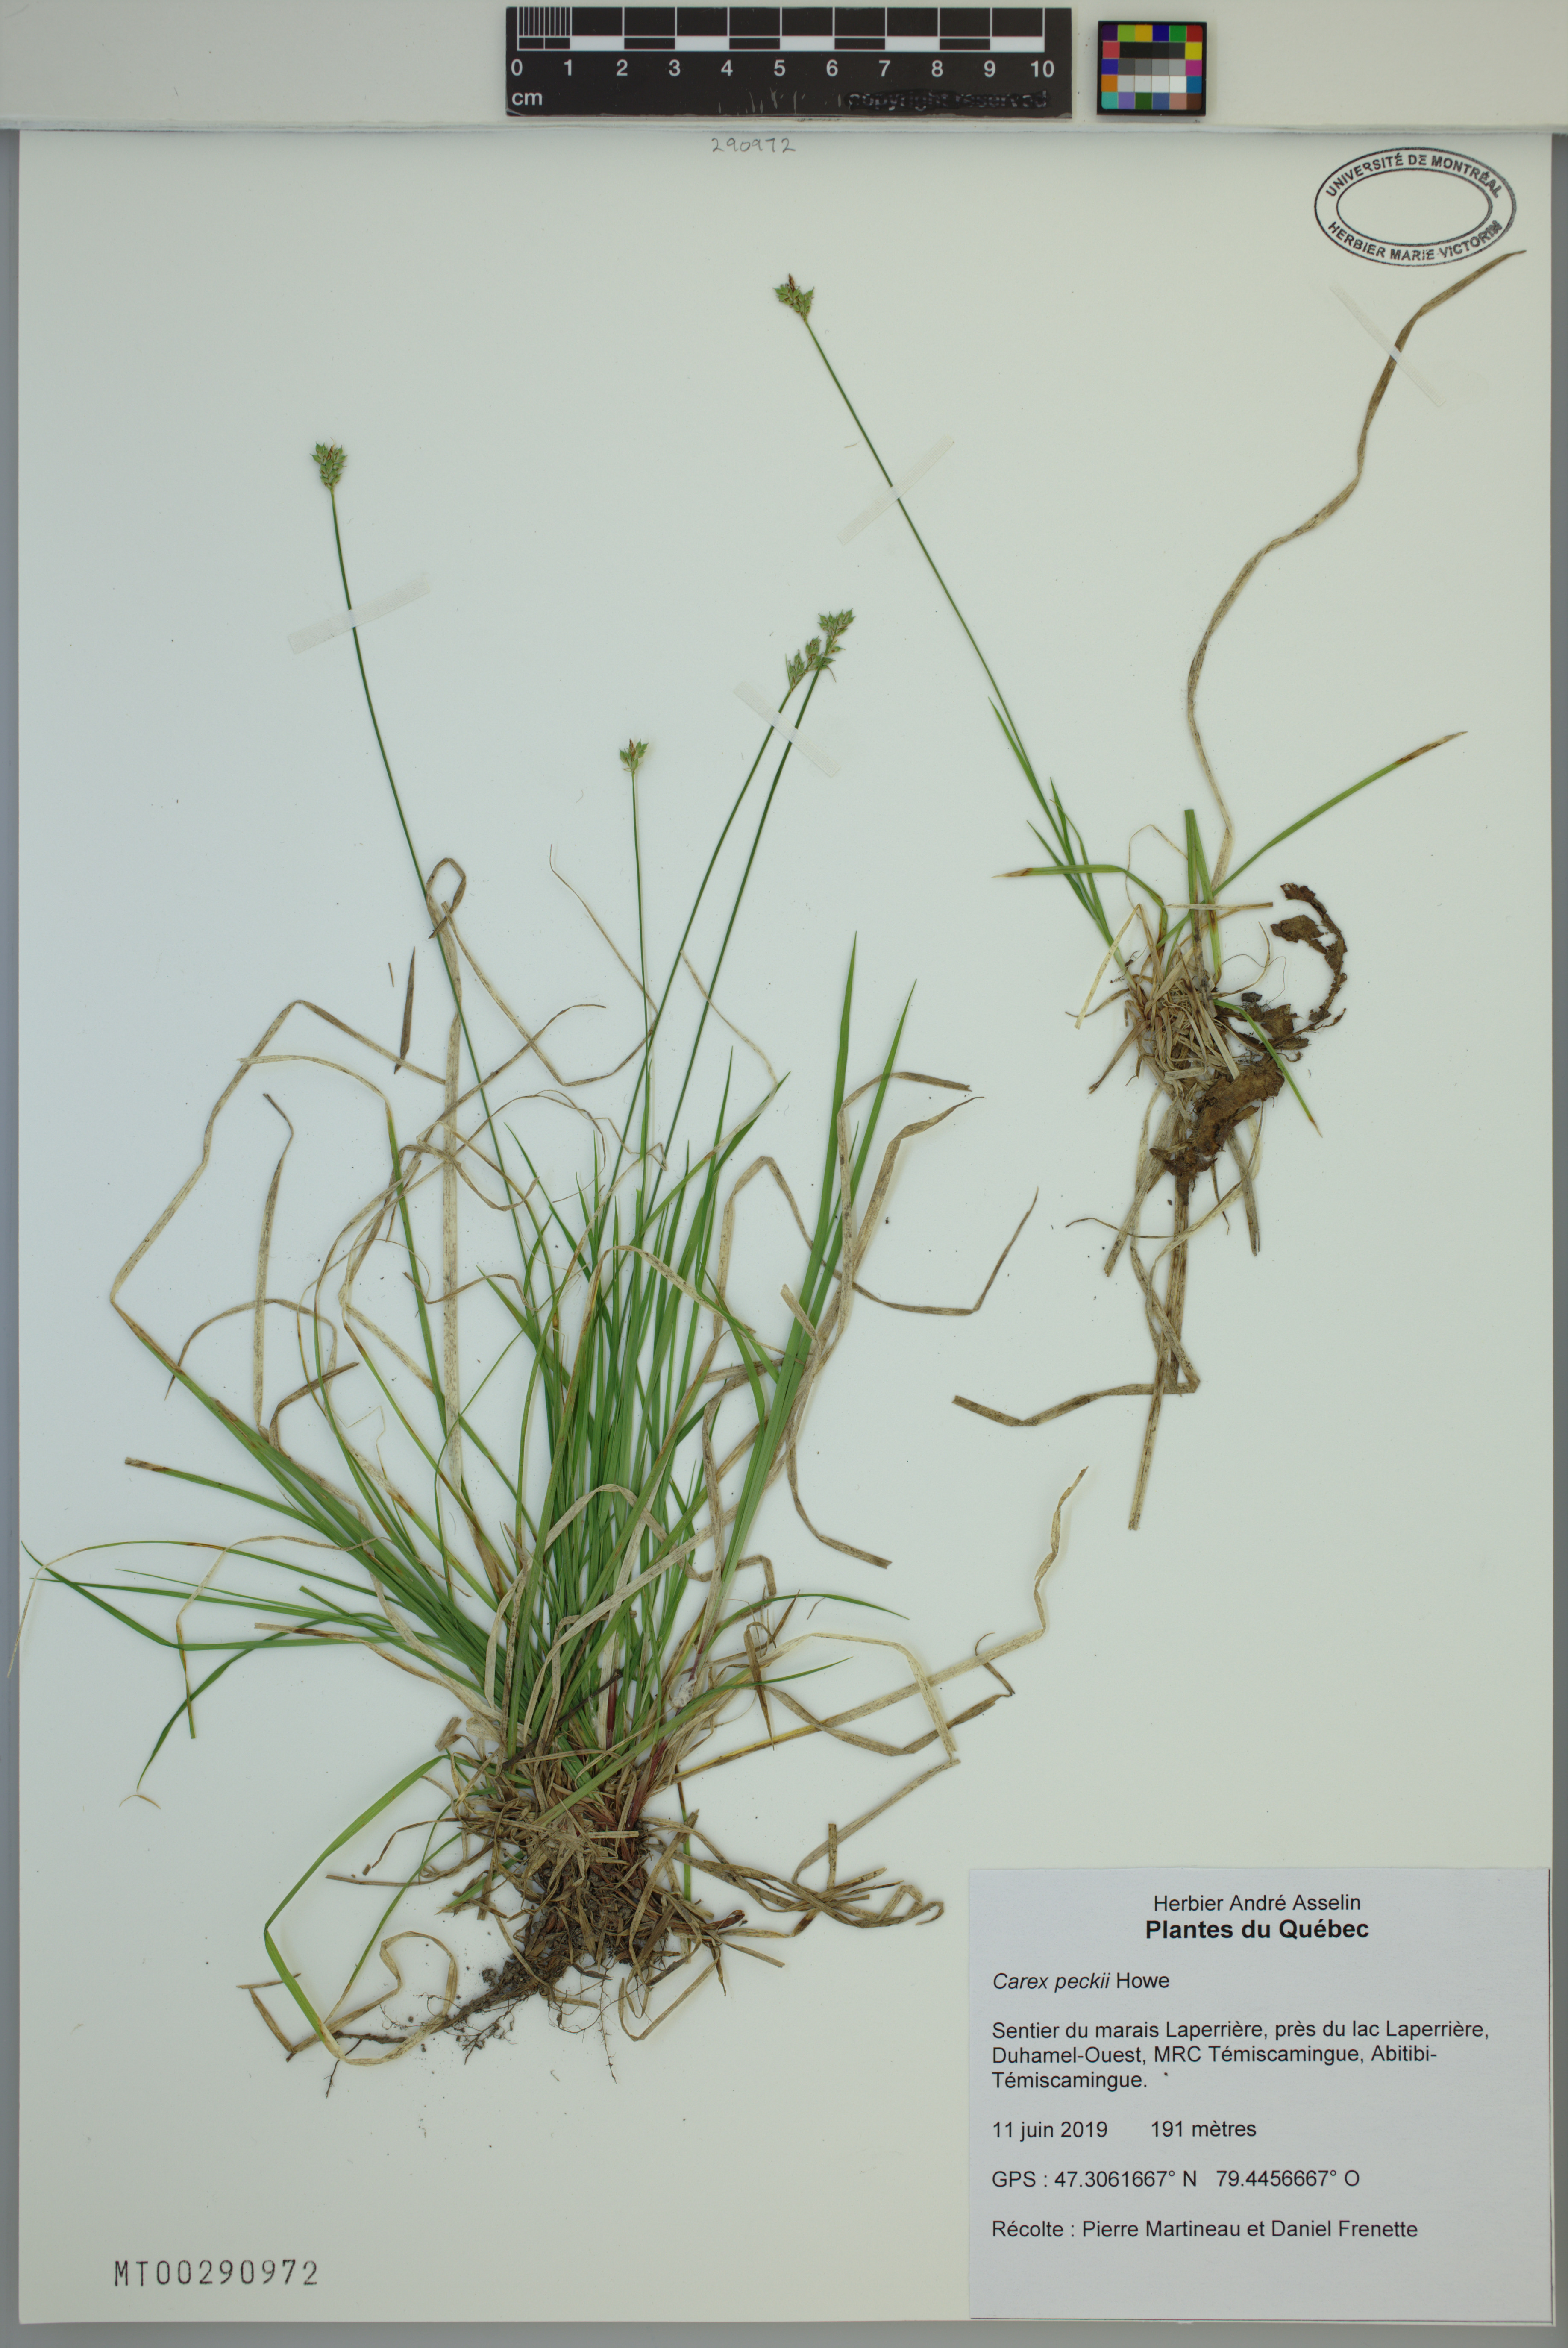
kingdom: Plantae
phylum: Tracheophyta
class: Liliopsida
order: Poales
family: Cyperaceae
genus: Carex
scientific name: Carex peckii
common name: Peck's oak sedge
